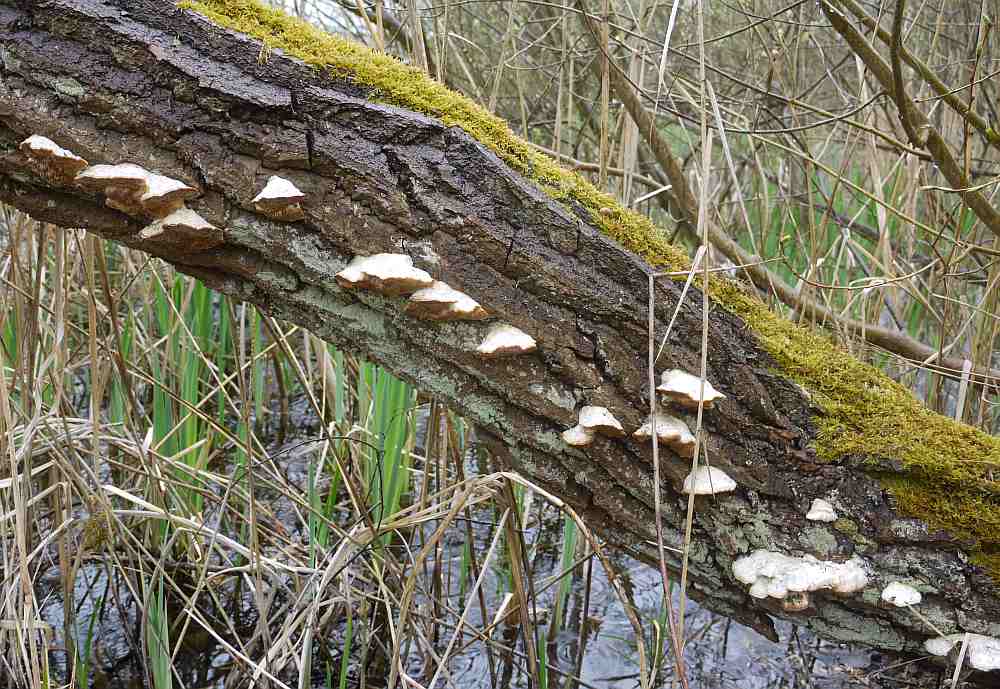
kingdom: Fungi
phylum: Basidiomycota
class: Agaricomycetes
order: Polyporales
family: Polyporaceae
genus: Trametes
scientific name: Trametes suaveolens
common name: vellugtende læderporesvamp
